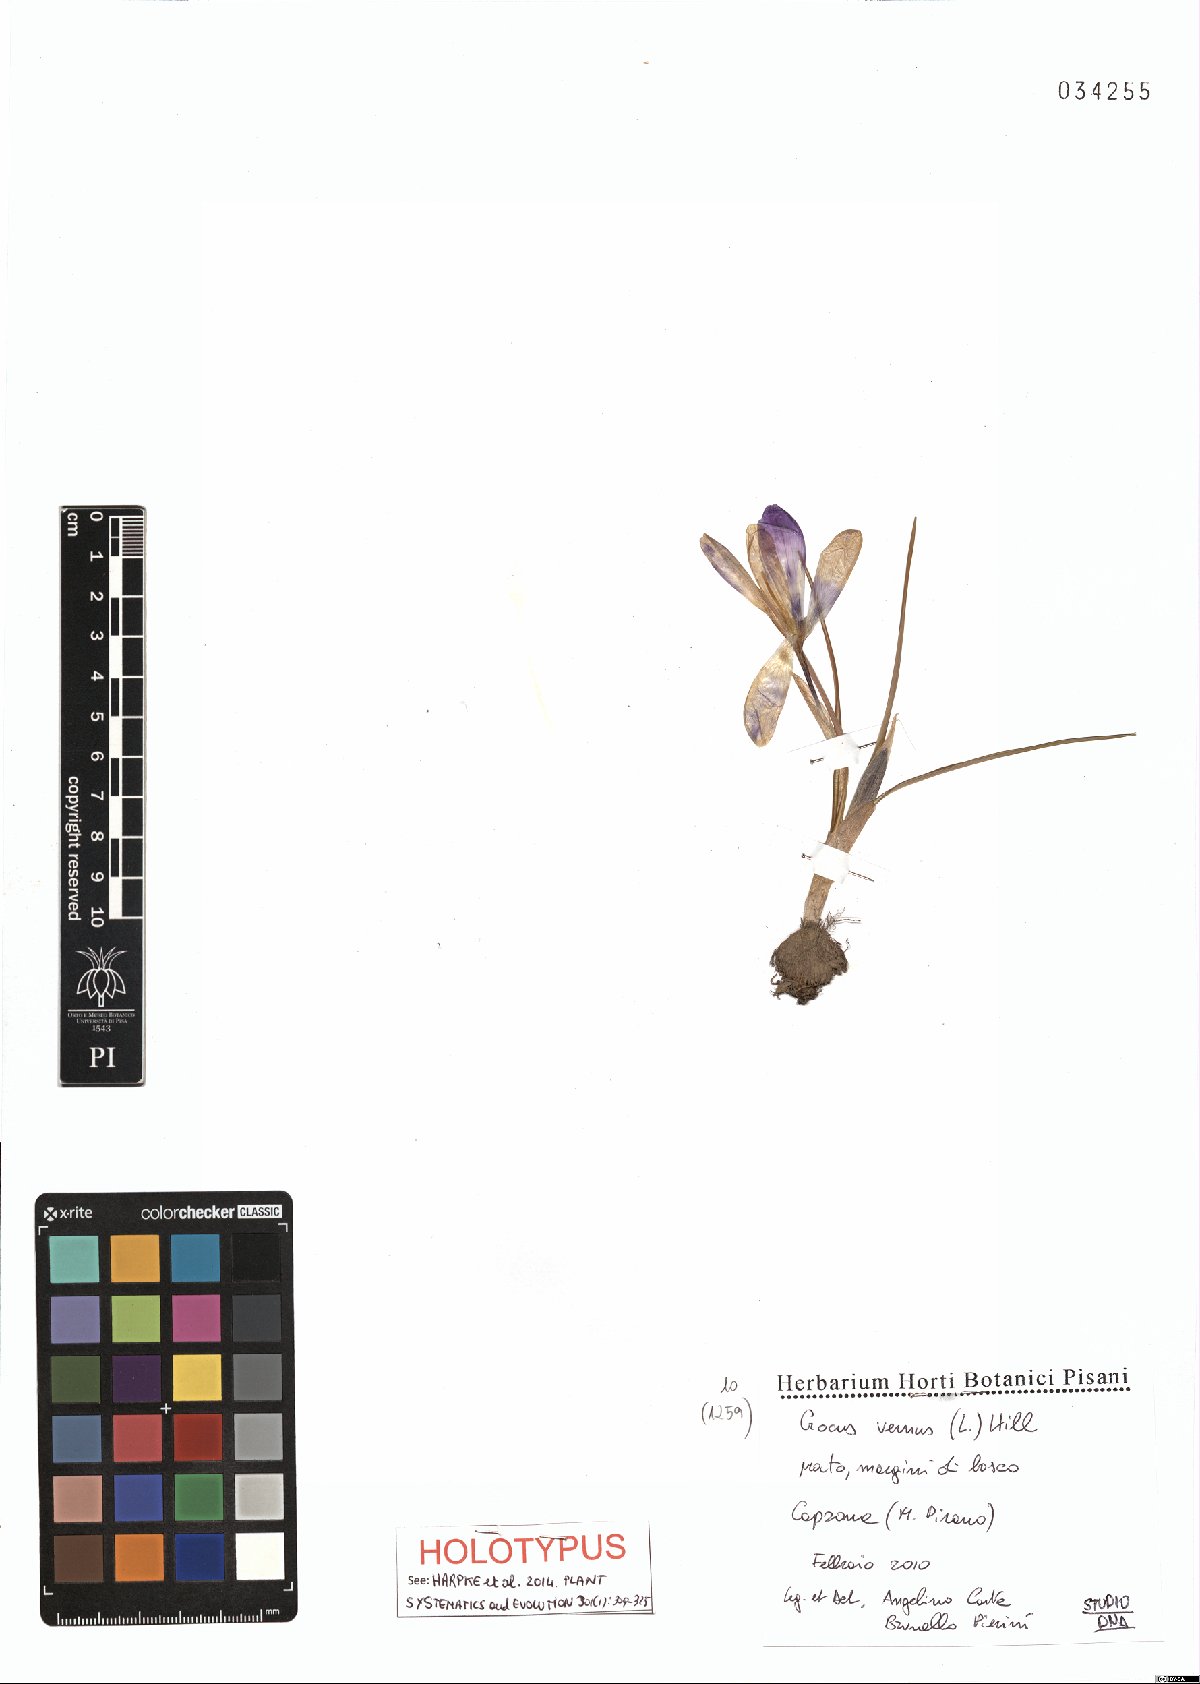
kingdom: Plantae
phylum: Tracheophyta
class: Liliopsida
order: Asparagales
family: Iridaceae
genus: Crocus
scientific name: Crocus vernus
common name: Spring crocus
